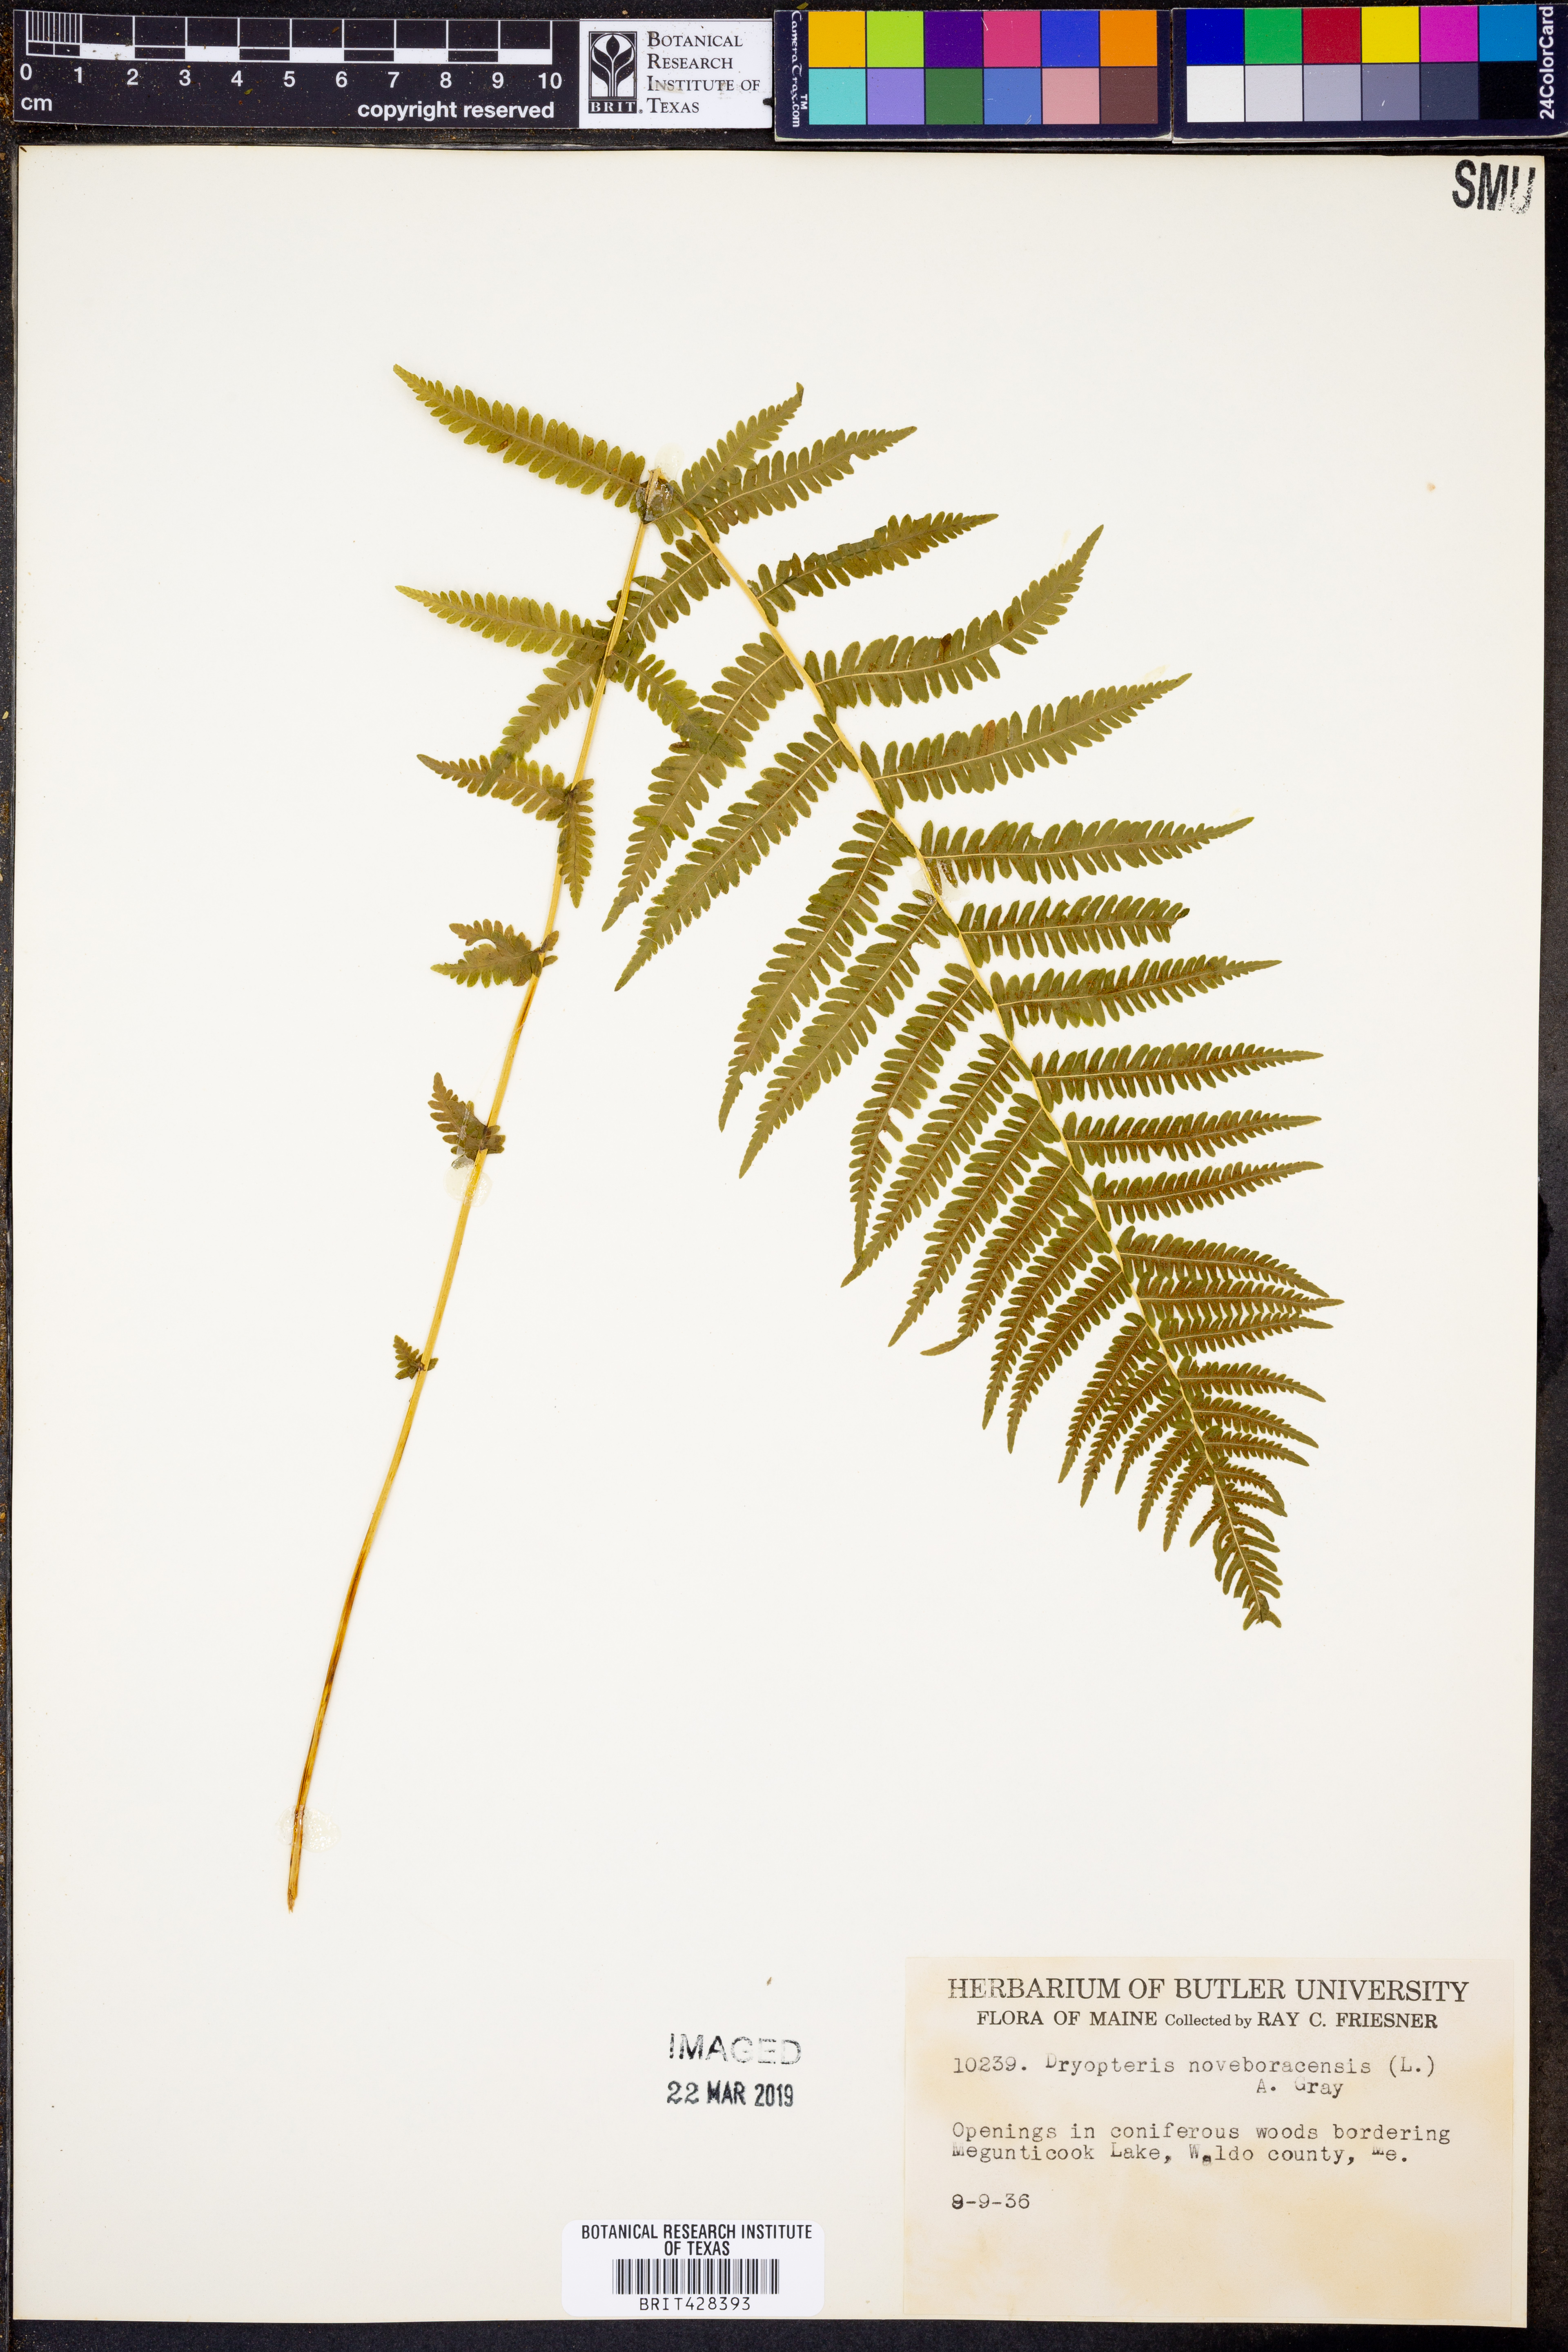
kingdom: Plantae
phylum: Tracheophyta
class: Polypodiopsida
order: Polypodiales
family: Thelypteridaceae
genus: Amauropelta
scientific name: Amauropelta noveboracensis
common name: New york fern
